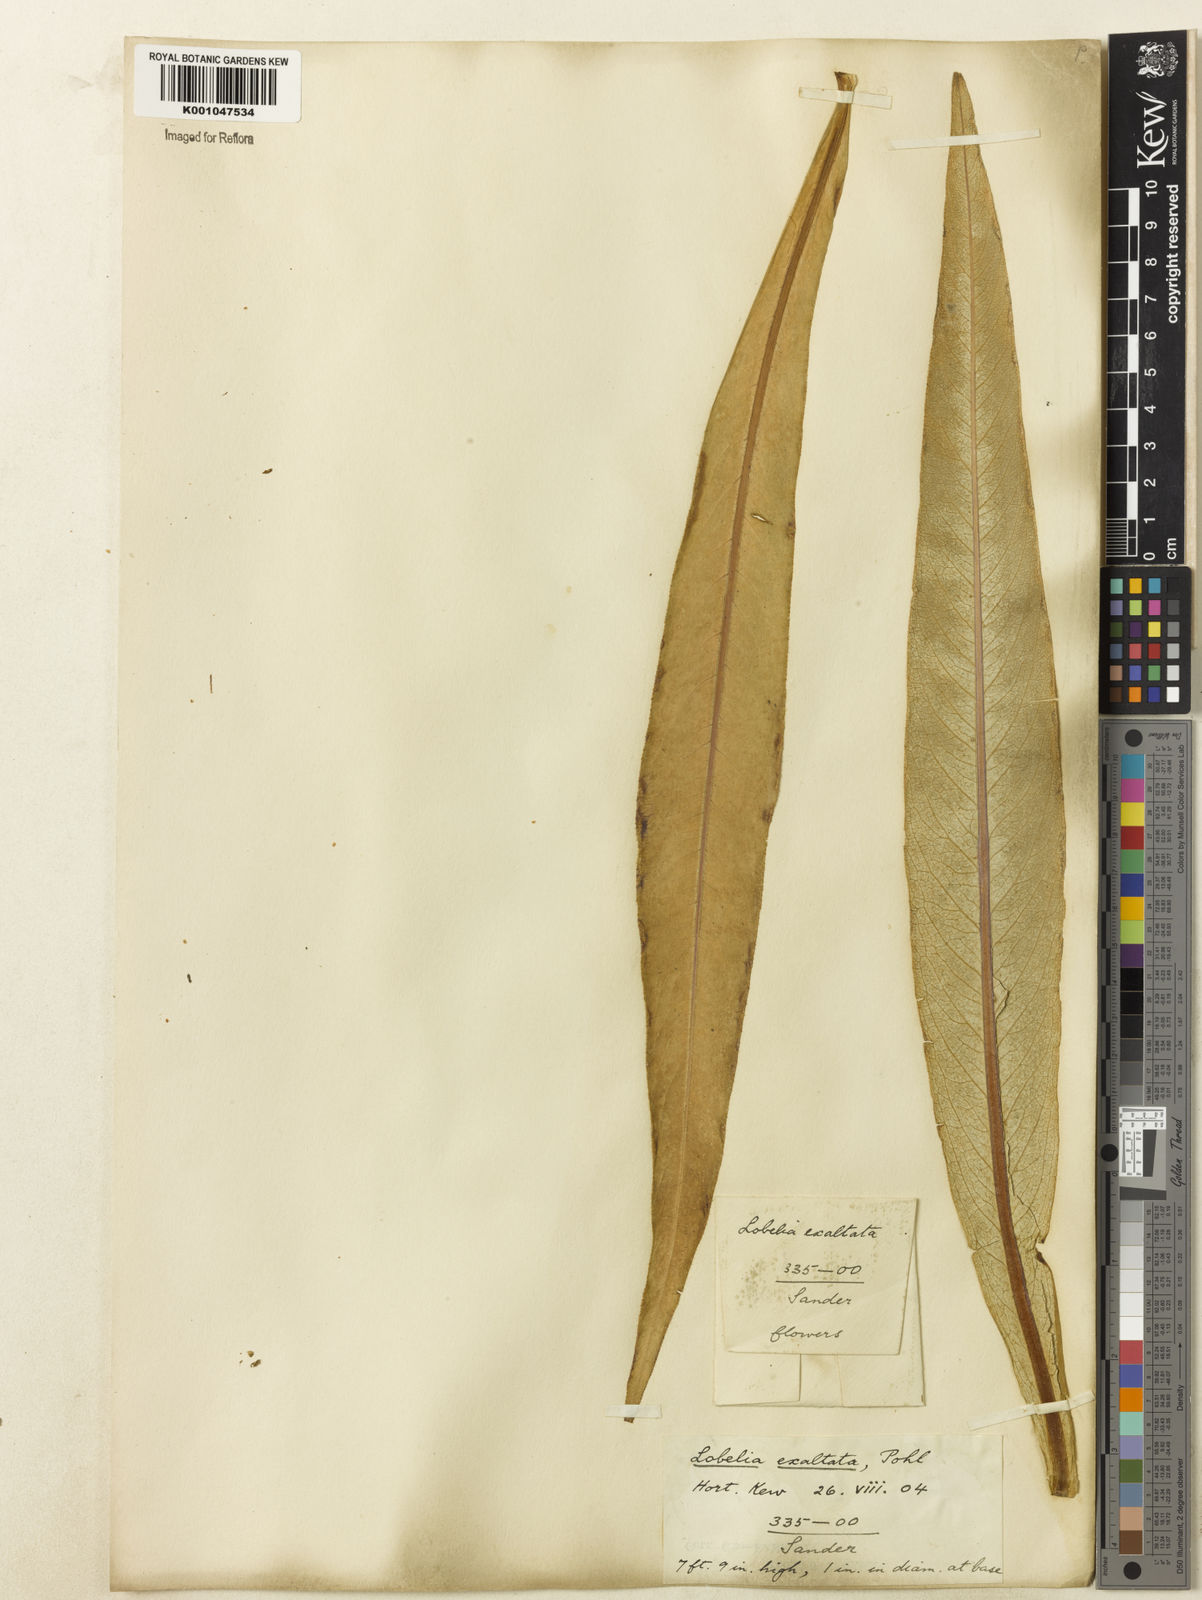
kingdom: Plantae
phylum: Tracheophyta
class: Magnoliopsida
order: Asterales
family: Campanulaceae
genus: Lobelia
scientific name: Lobelia exaltata
